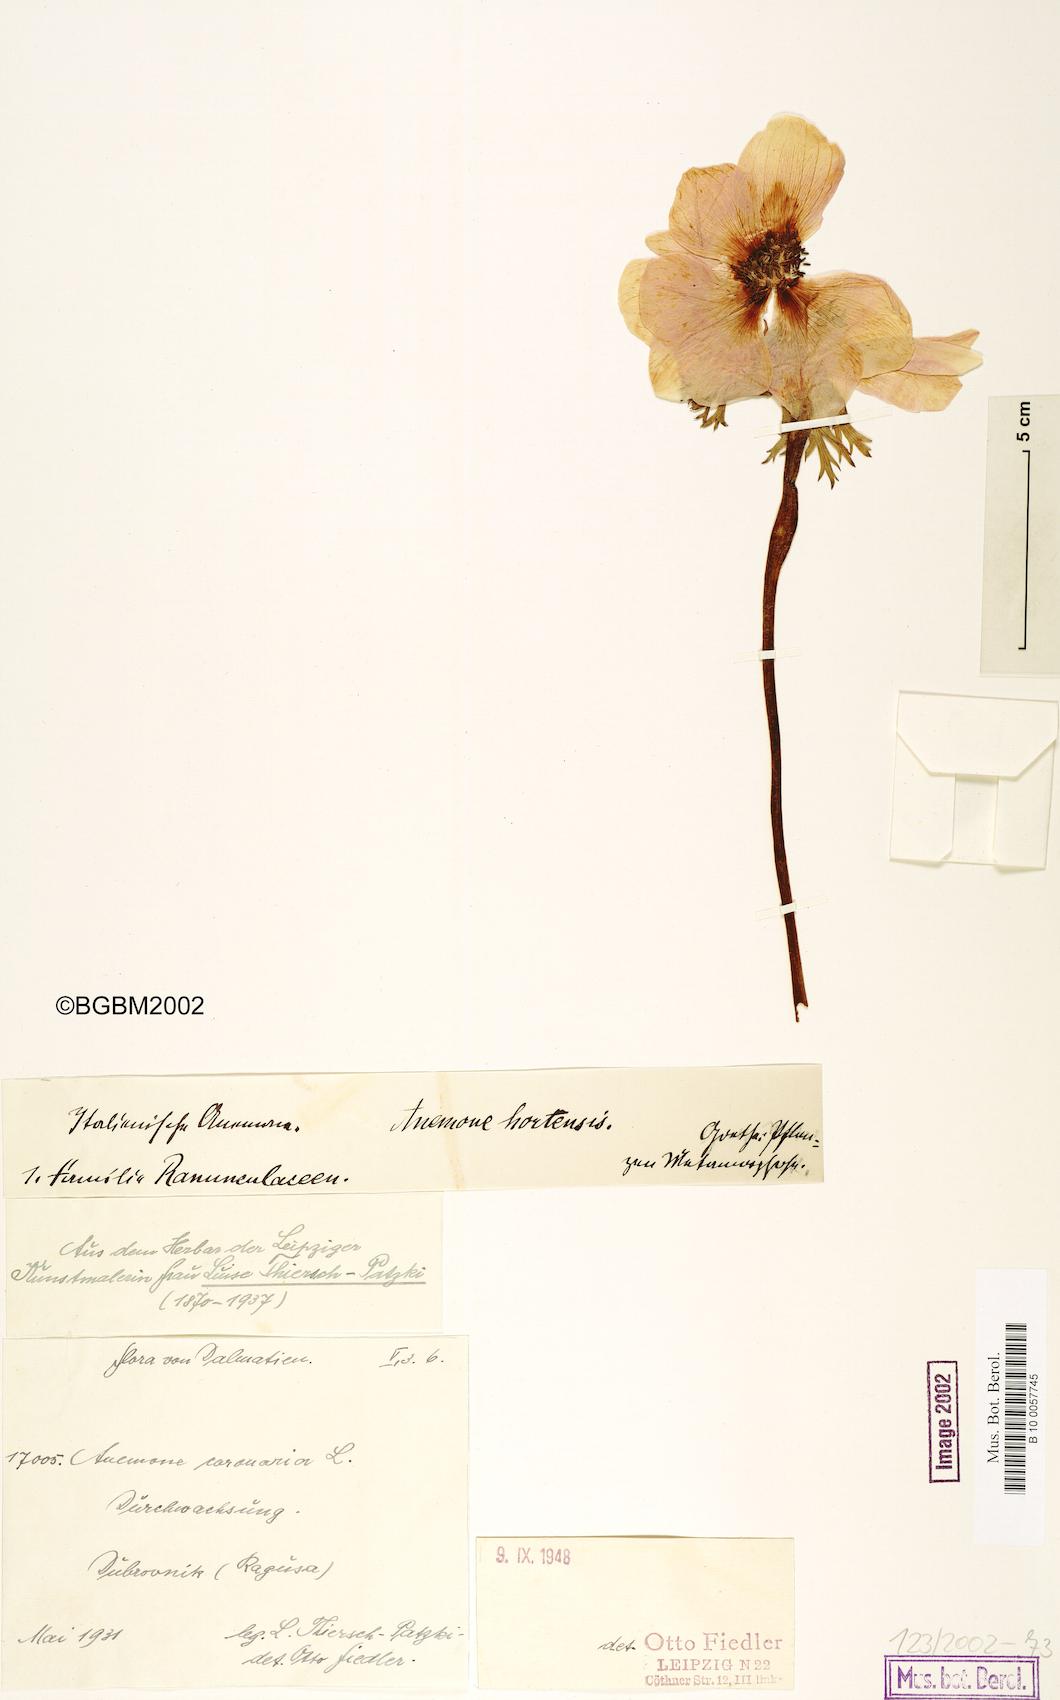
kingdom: Plantae
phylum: Tracheophyta
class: Magnoliopsida
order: Ranunculales
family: Ranunculaceae
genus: Anemone
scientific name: Anemone coronaria
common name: Poppy anemone
